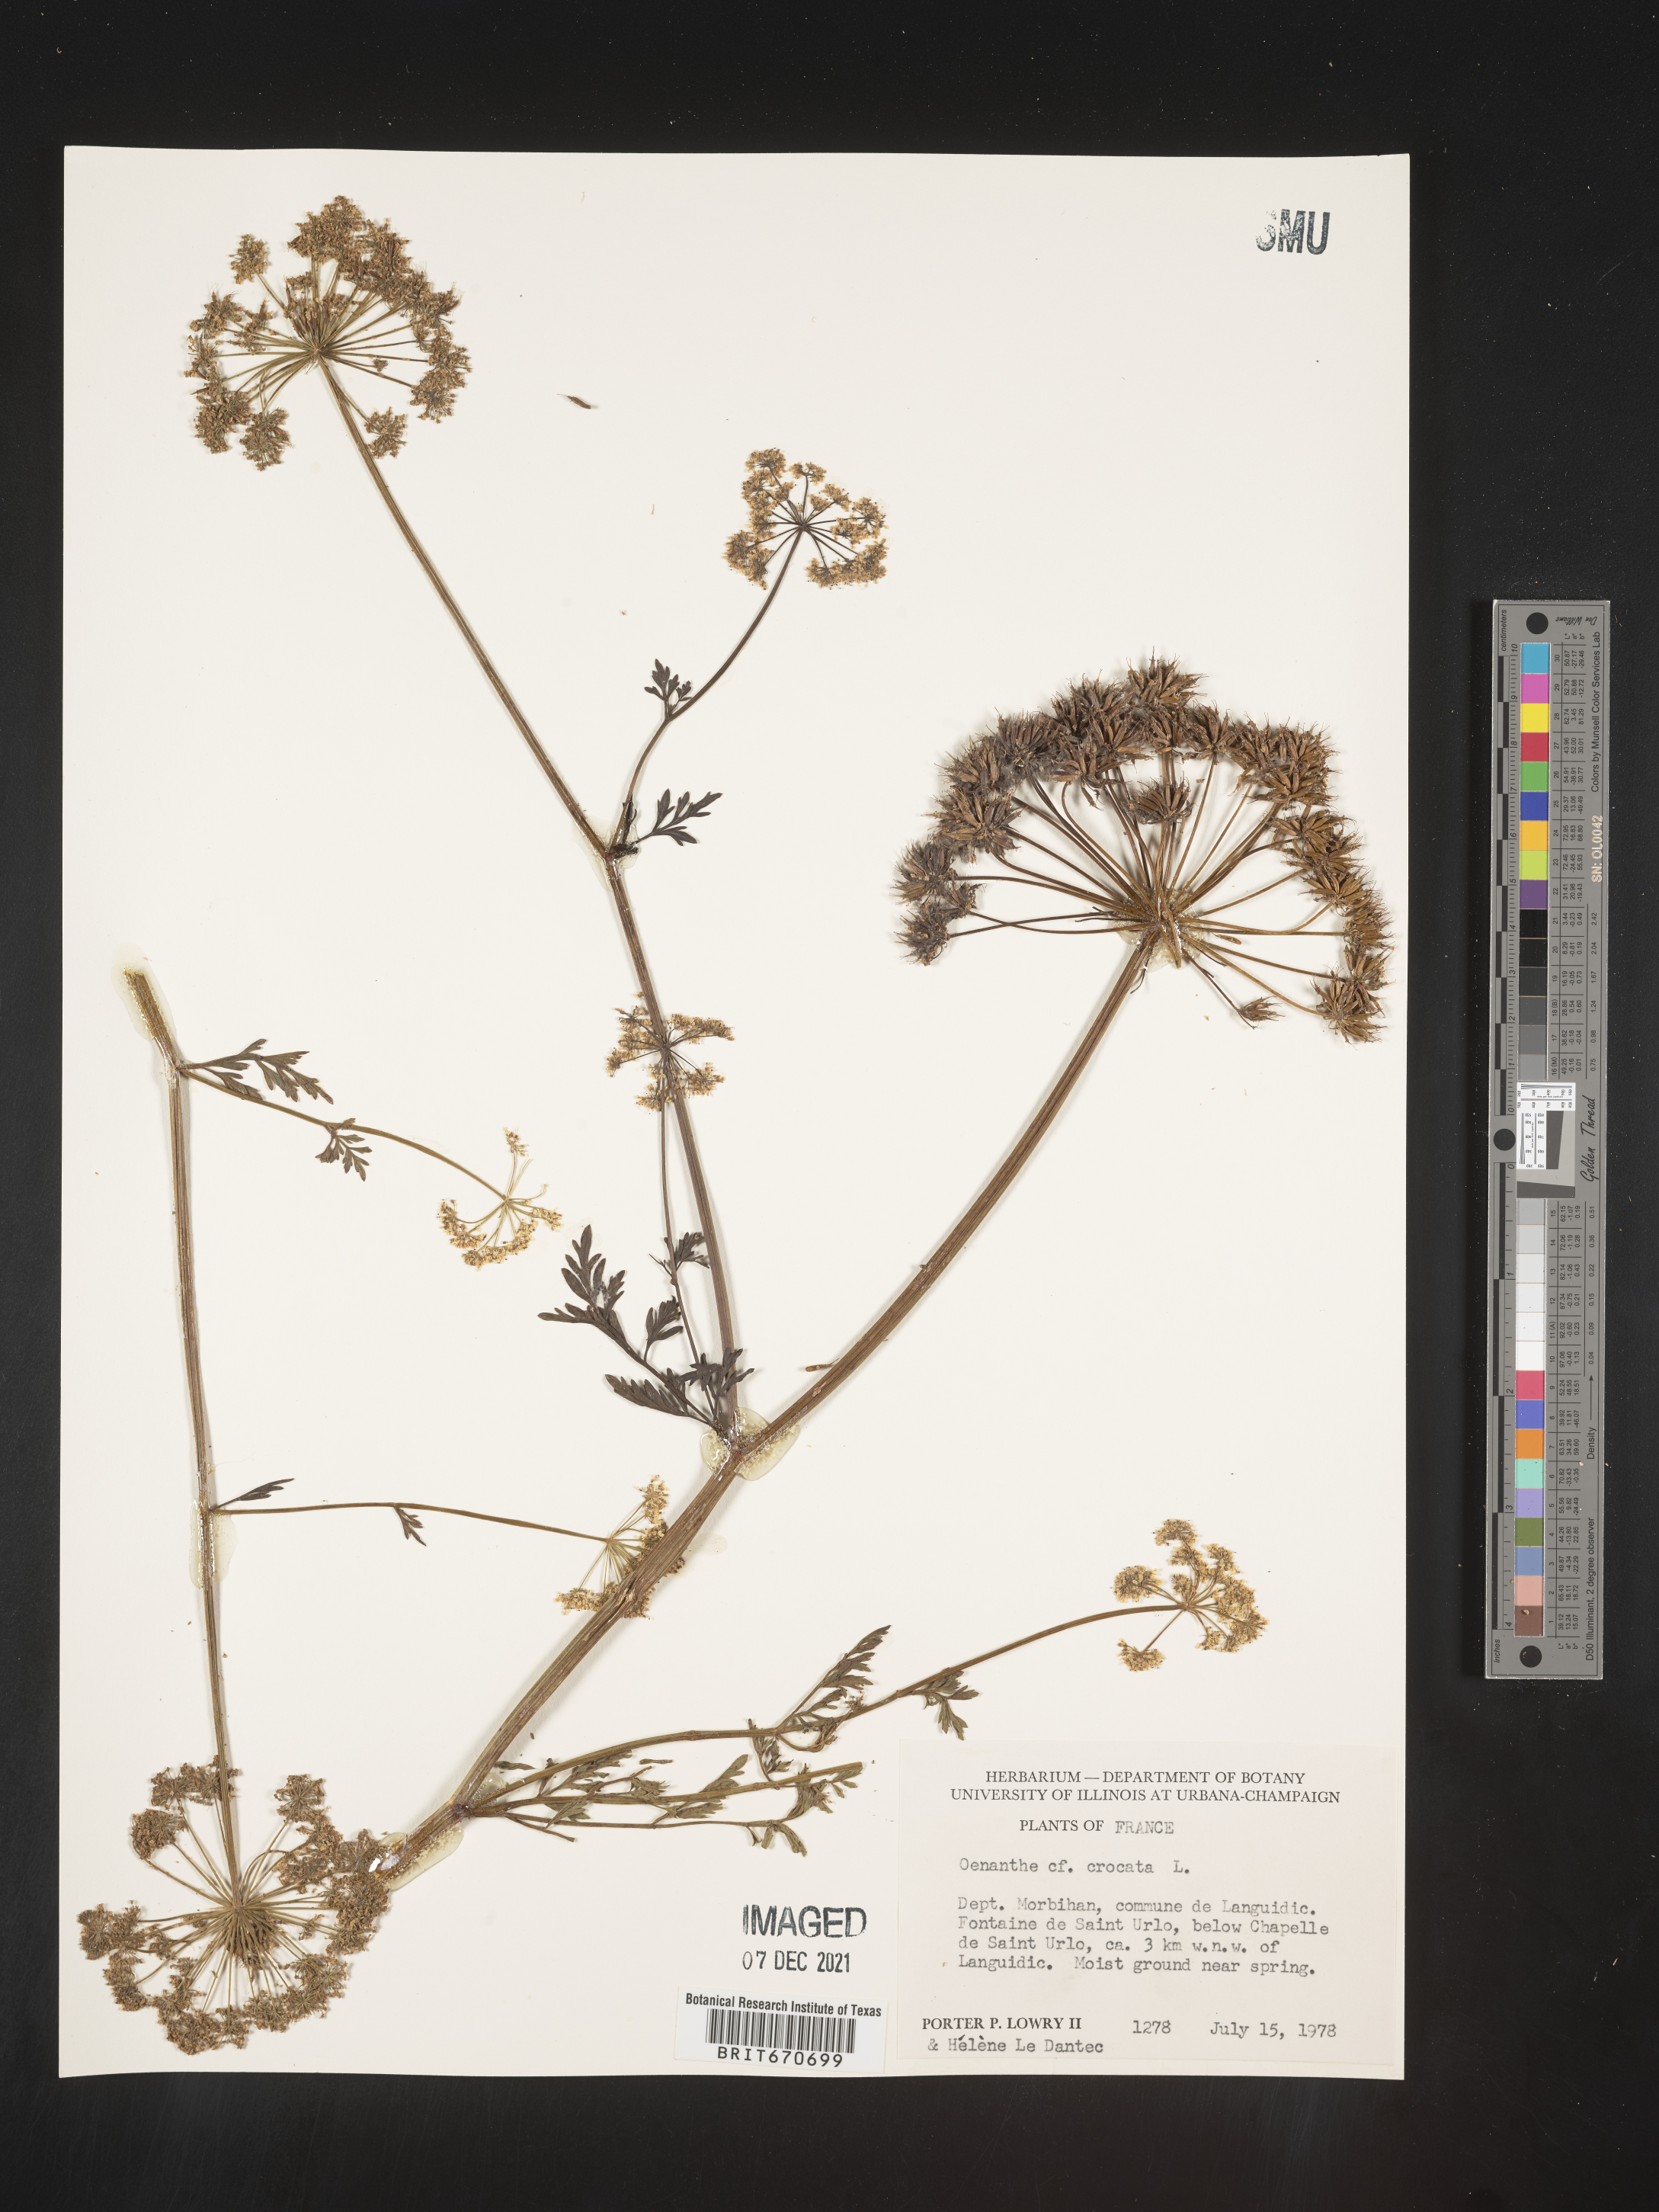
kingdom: Plantae
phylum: Tracheophyta
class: Magnoliopsida
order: Apiales
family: Apiaceae
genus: Oenanthe
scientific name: Oenanthe
